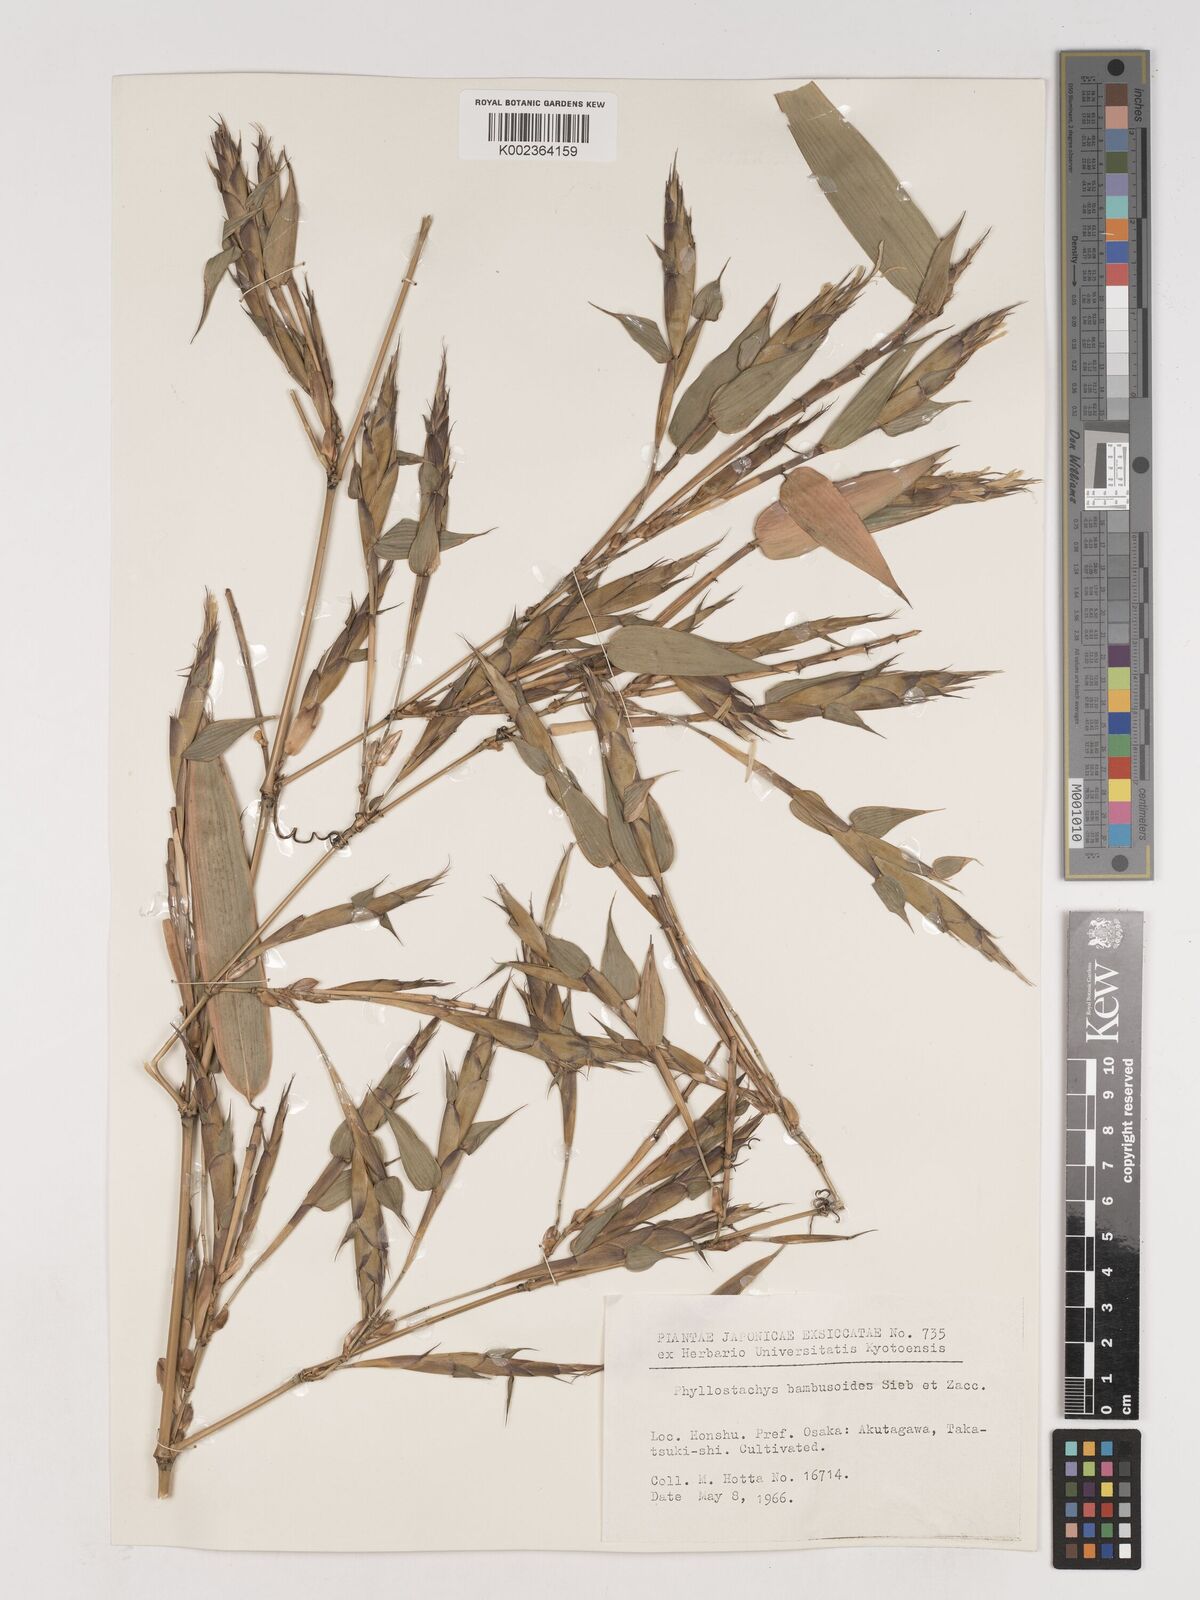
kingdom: Plantae
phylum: Tracheophyta
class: Liliopsida
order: Poales
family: Poaceae
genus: Phyllostachys
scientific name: Phyllostachys reticulata
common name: Bamboo
